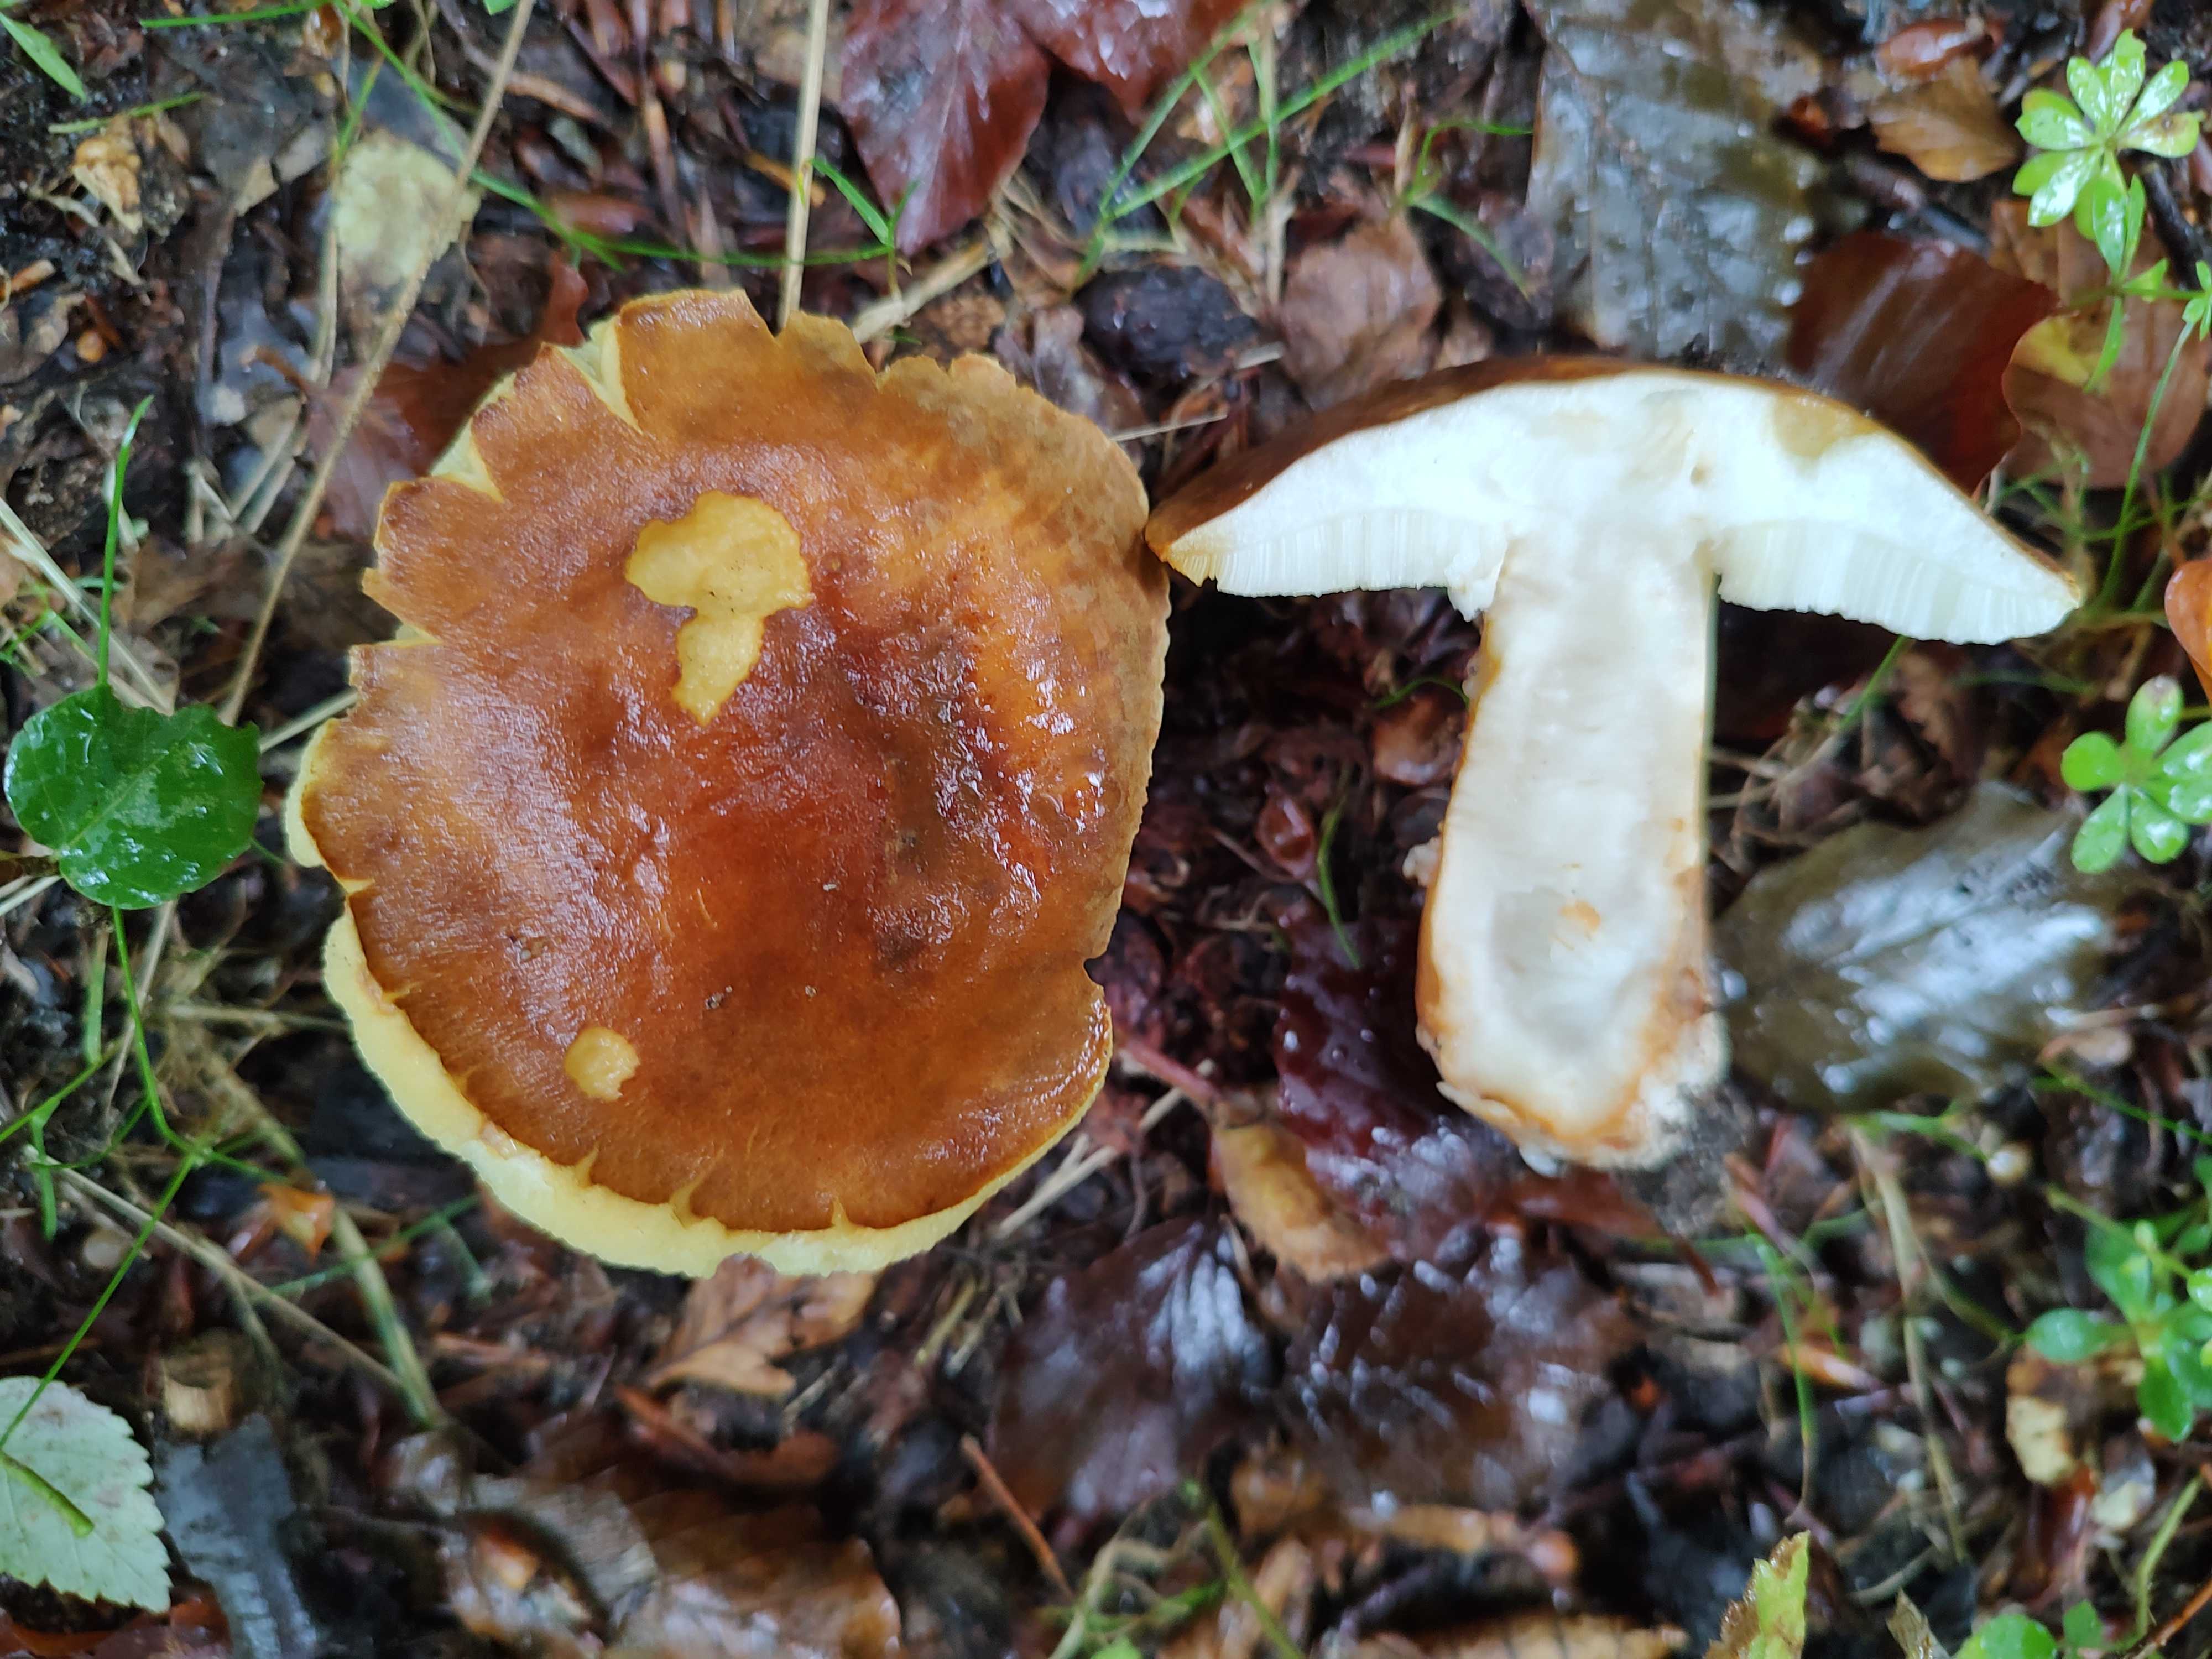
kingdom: Fungi
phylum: Basidiomycota
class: Agaricomycetes
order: Boletales
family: Gyroporaceae
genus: Gyroporus
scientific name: Gyroporus castaneus
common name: kastanie-kammerrørhat
